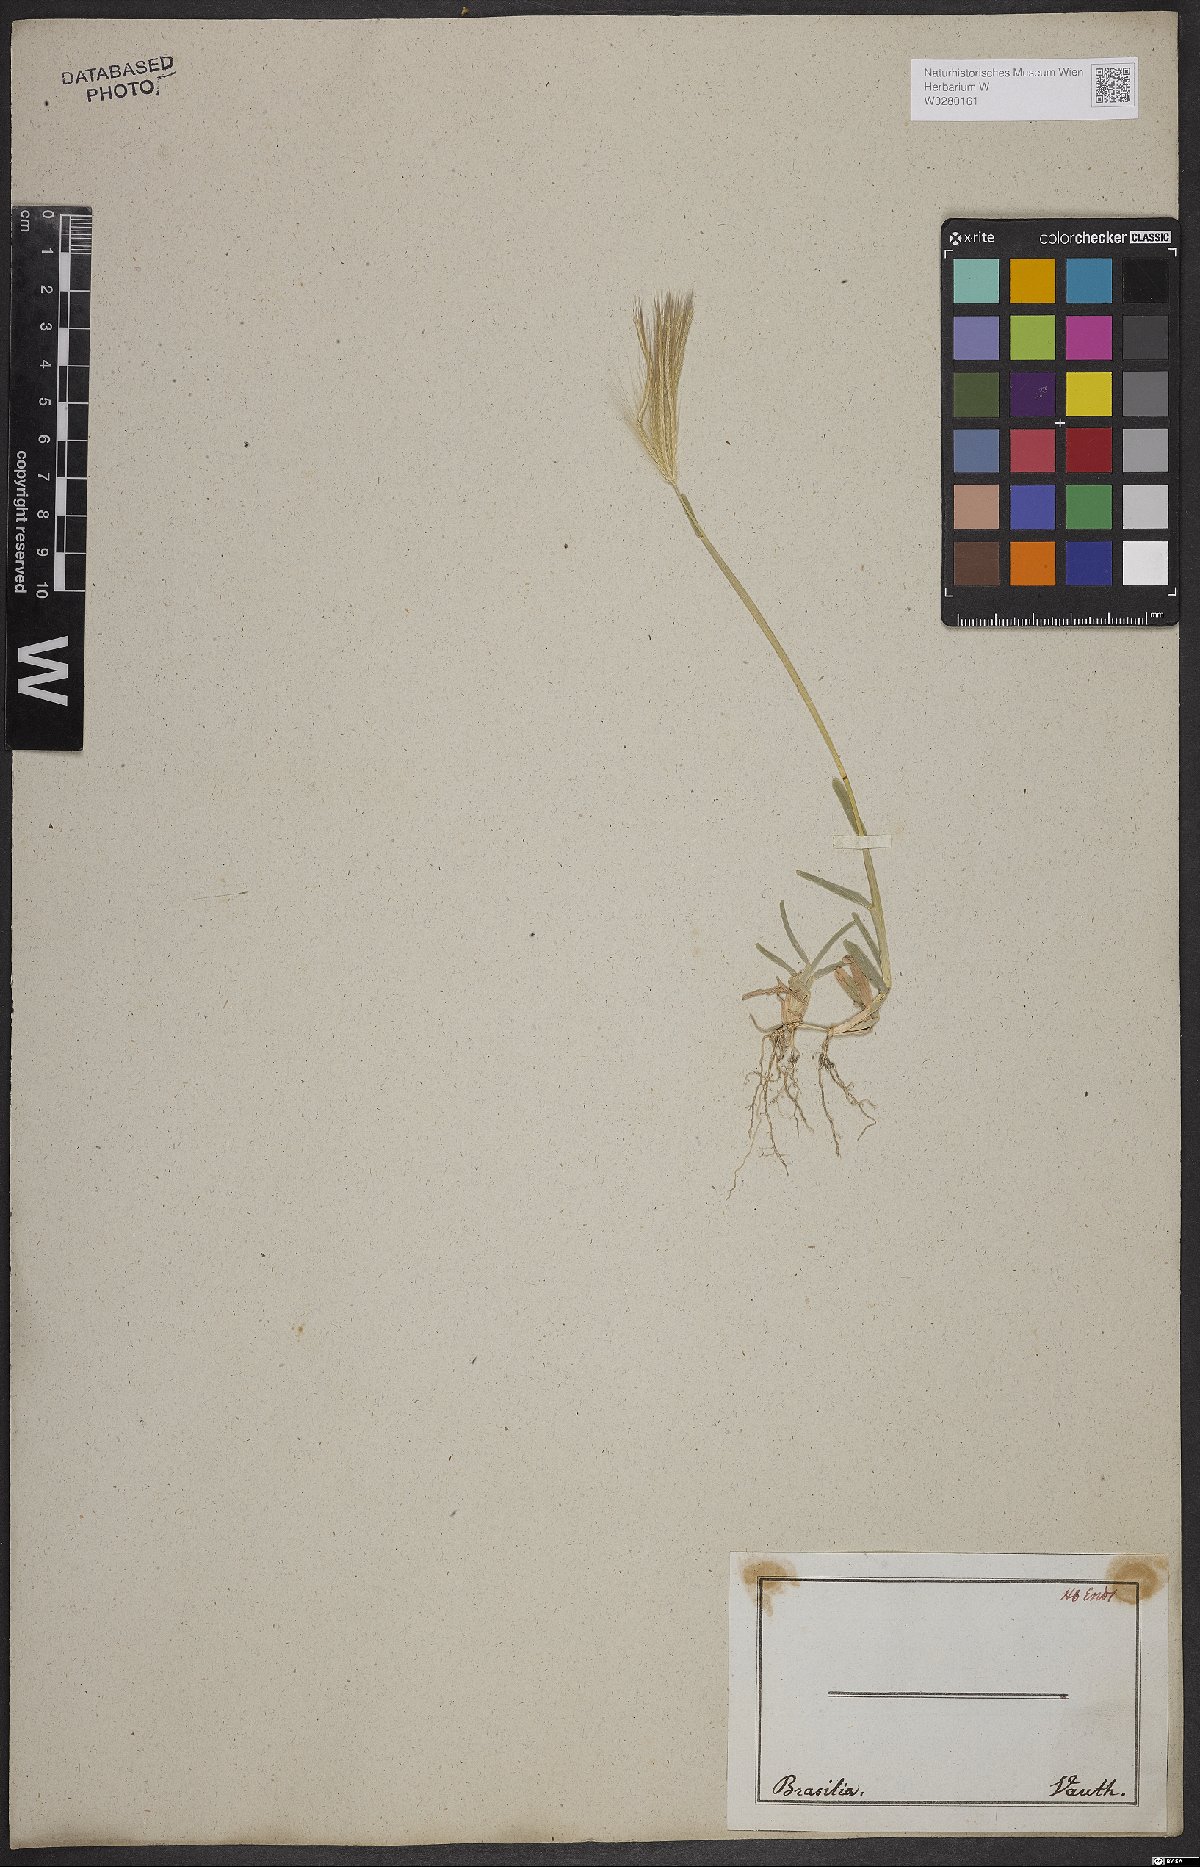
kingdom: Plantae
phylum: Tracheophyta
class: Liliopsida
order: Poales
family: Poaceae
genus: Chloris
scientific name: Chloris pycnothrix
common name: Spiderweb chloris
